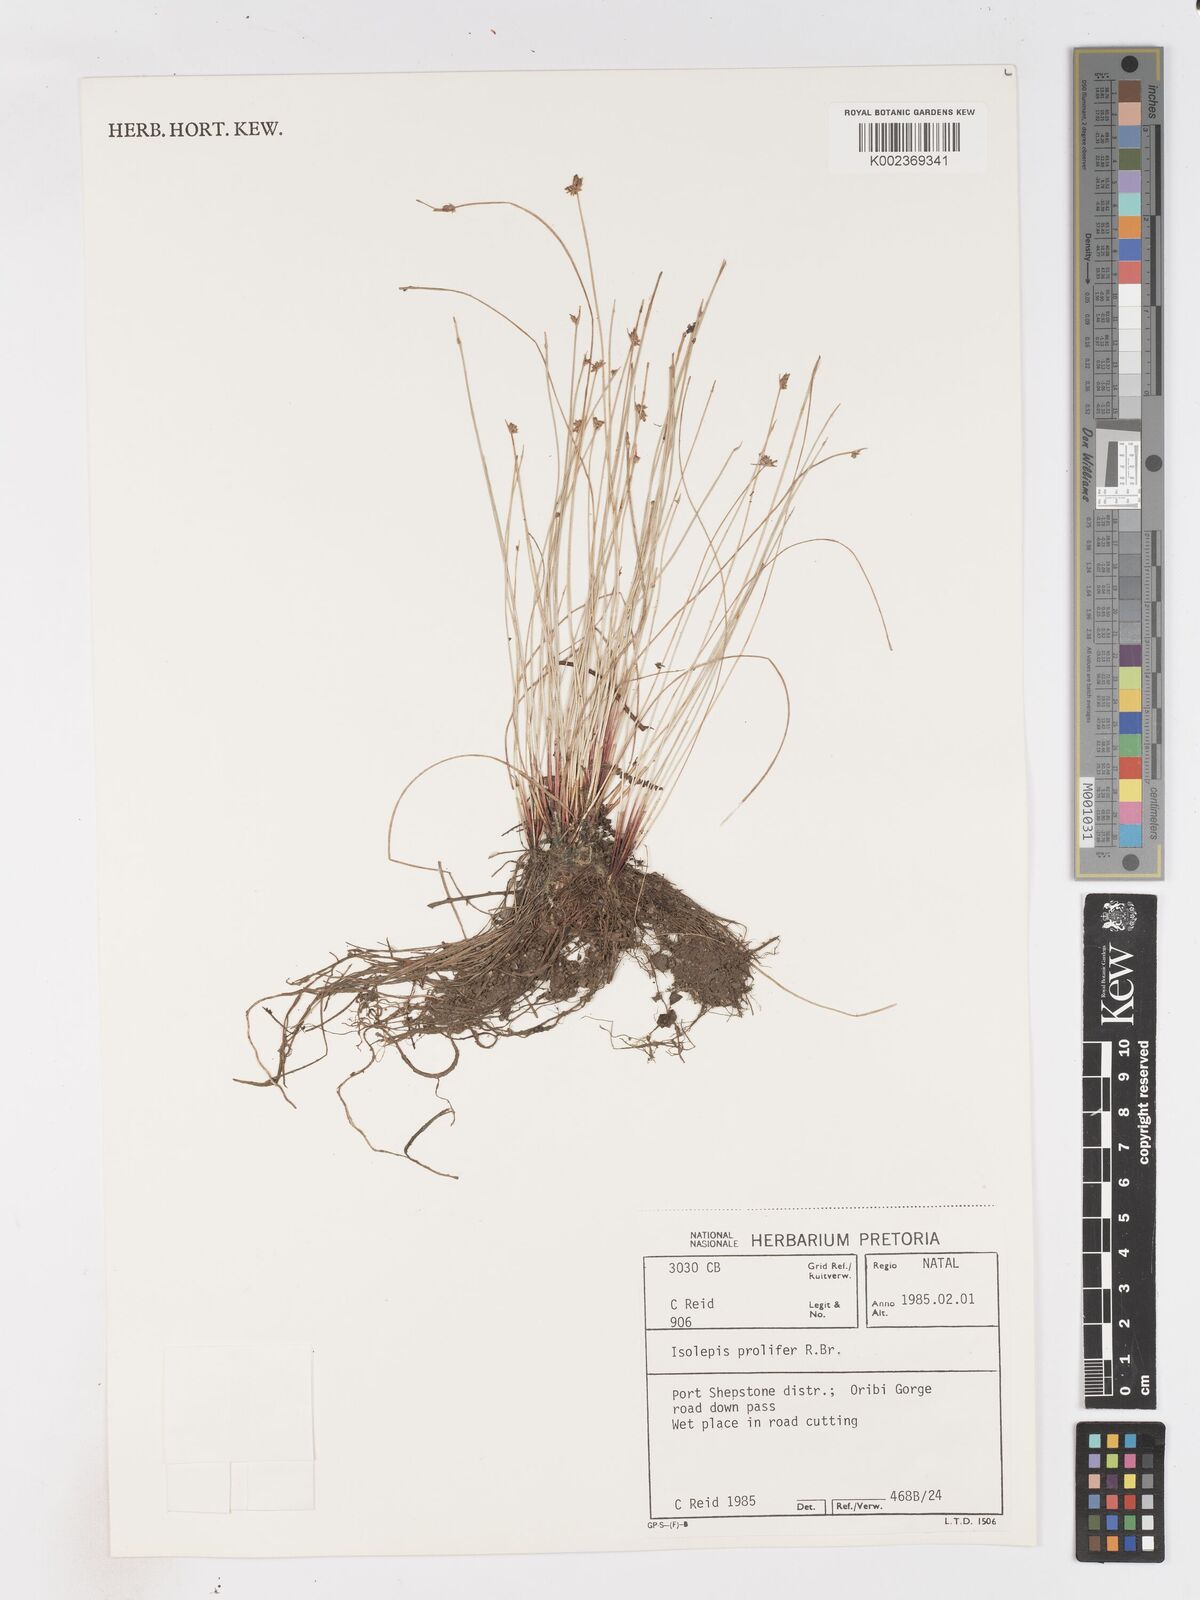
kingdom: Plantae
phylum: Tracheophyta
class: Liliopsida
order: Poales
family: Cyperaceae
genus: Isolepis
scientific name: Isolepis prolifera
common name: Proliferating bulrush
